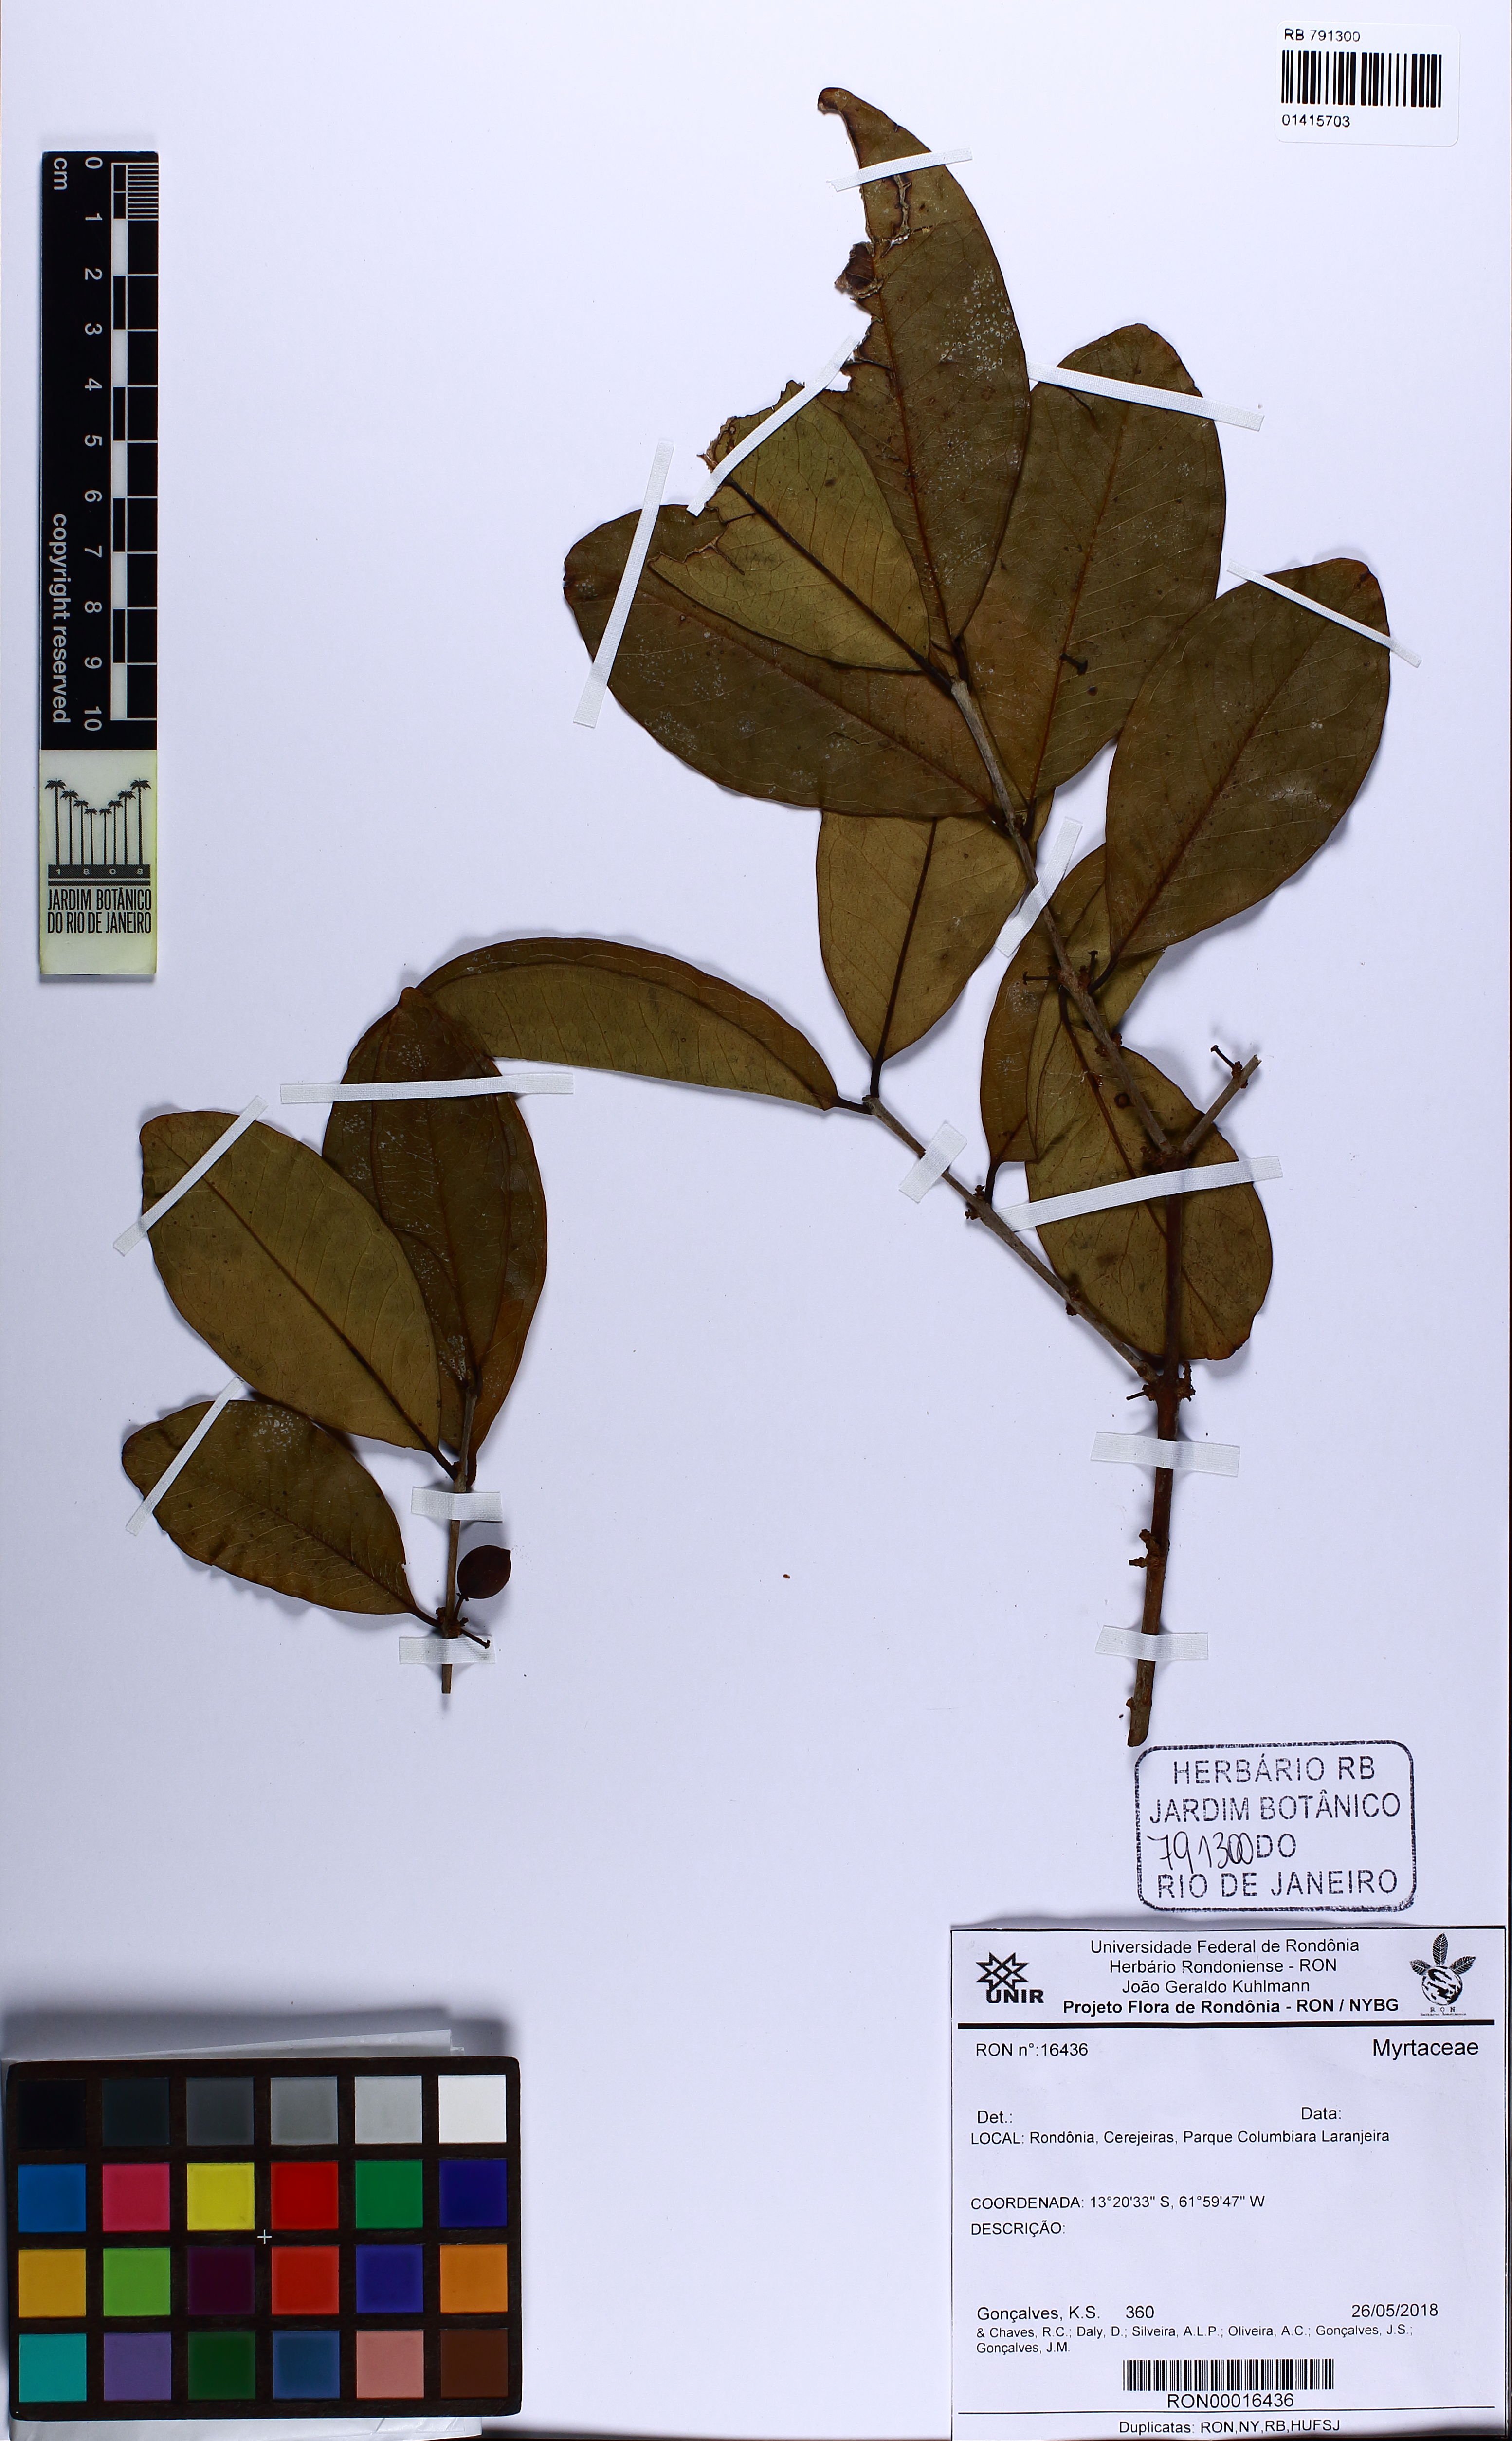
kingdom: Plantae
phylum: Tracheophyta
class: Magnoliopsida
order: Myrtales
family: Myrtaceae
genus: Eugenia
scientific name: Eugenia stictopetala
